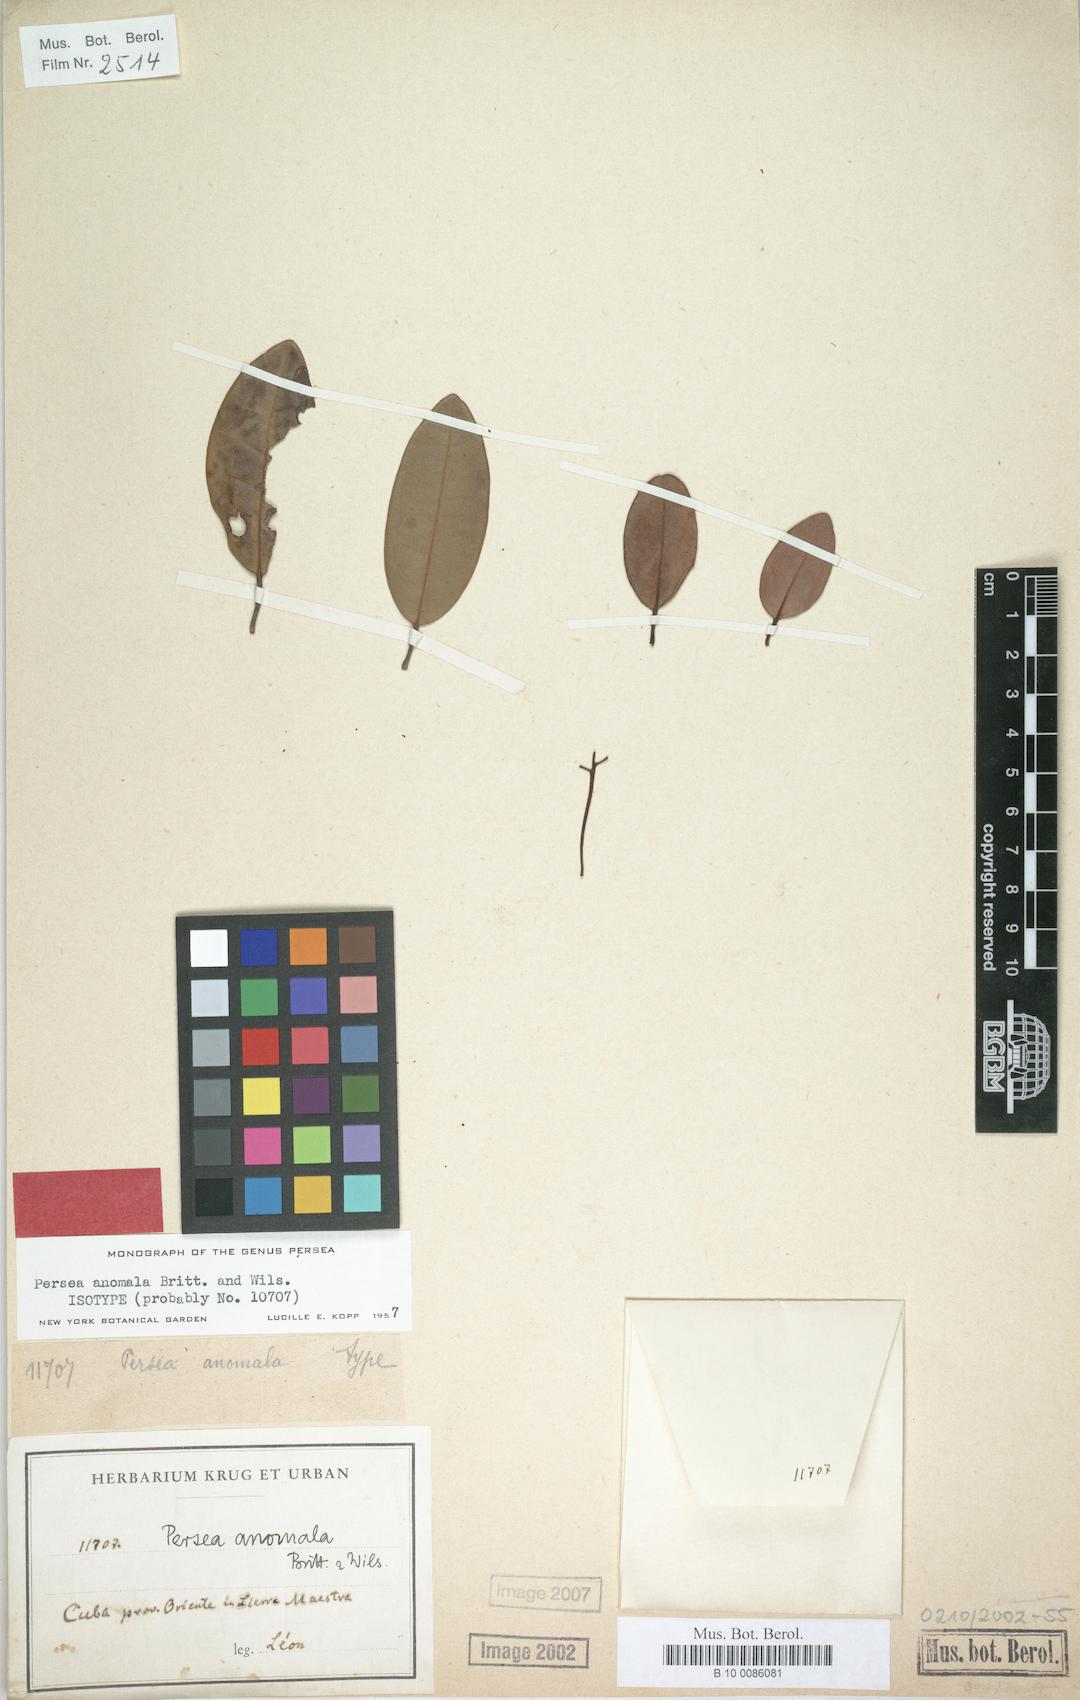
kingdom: Plantae
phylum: Tracheophyta
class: Magnoliopsida
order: Laurales
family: Lauraceae
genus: Persea
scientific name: Persea anomala
